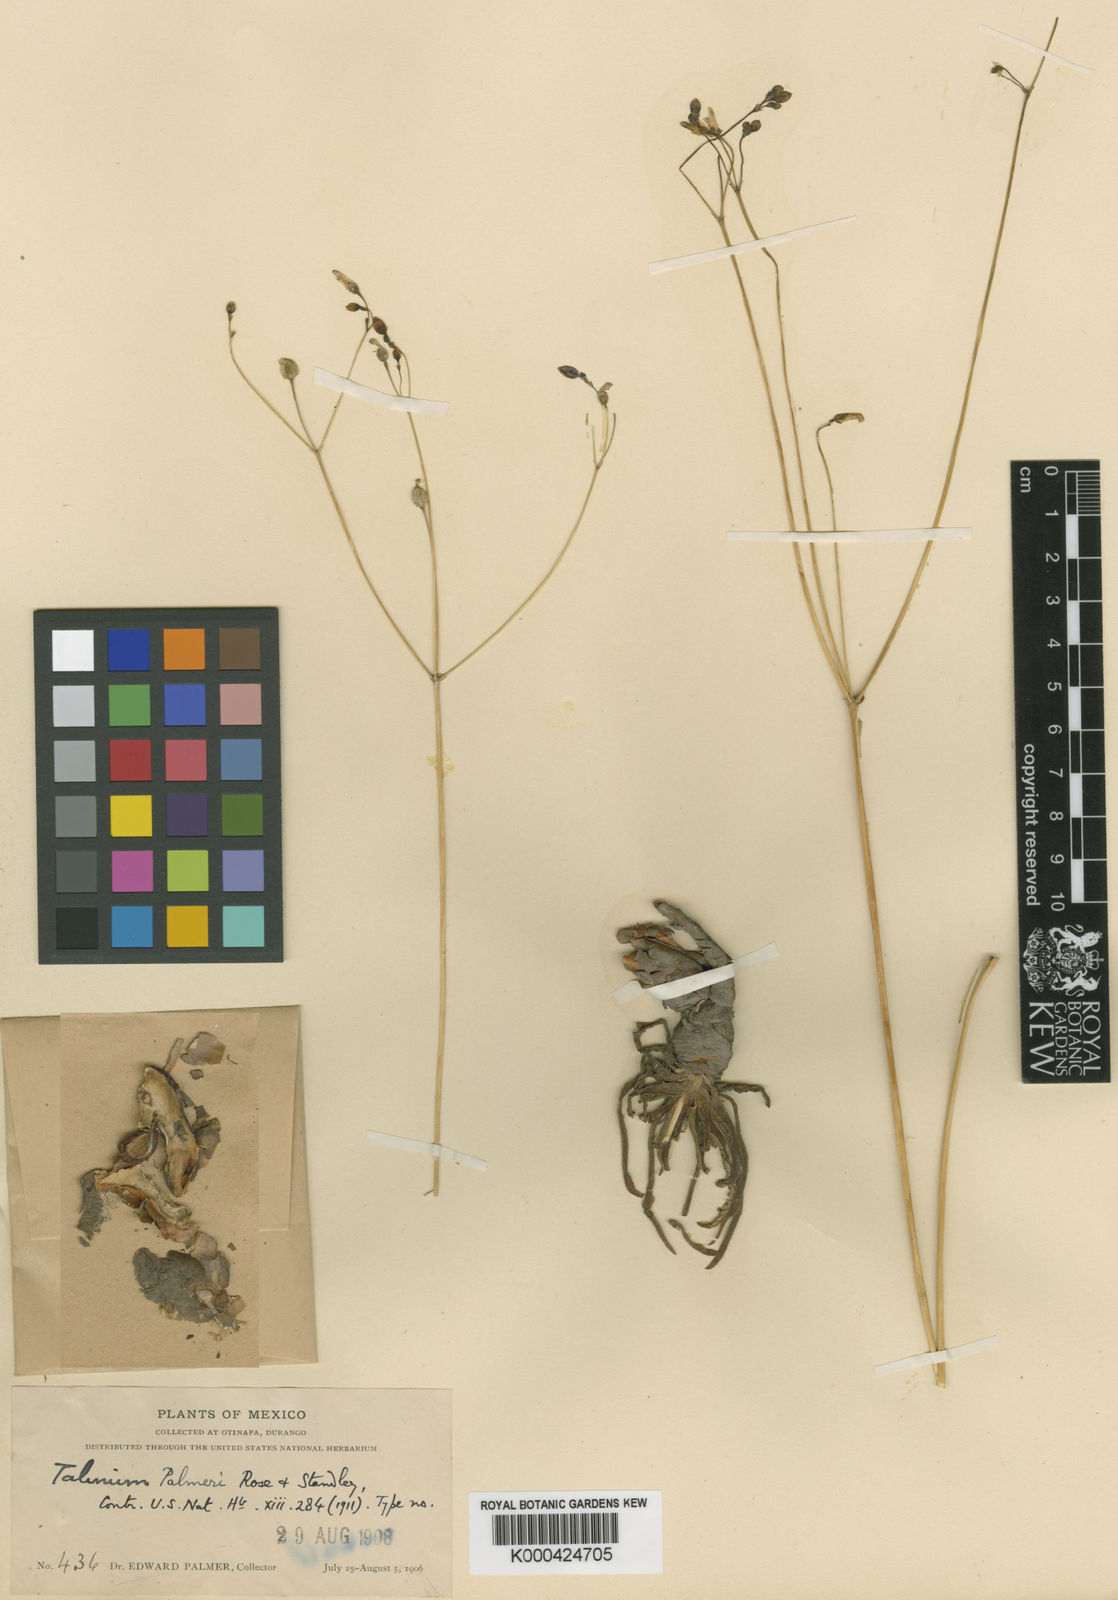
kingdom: Plantae
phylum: Tracheophyta
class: Magnoliopsida
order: Caryophyllales
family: Anacampserotaceae
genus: Grahamia
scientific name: Grahamia coahuilensis
